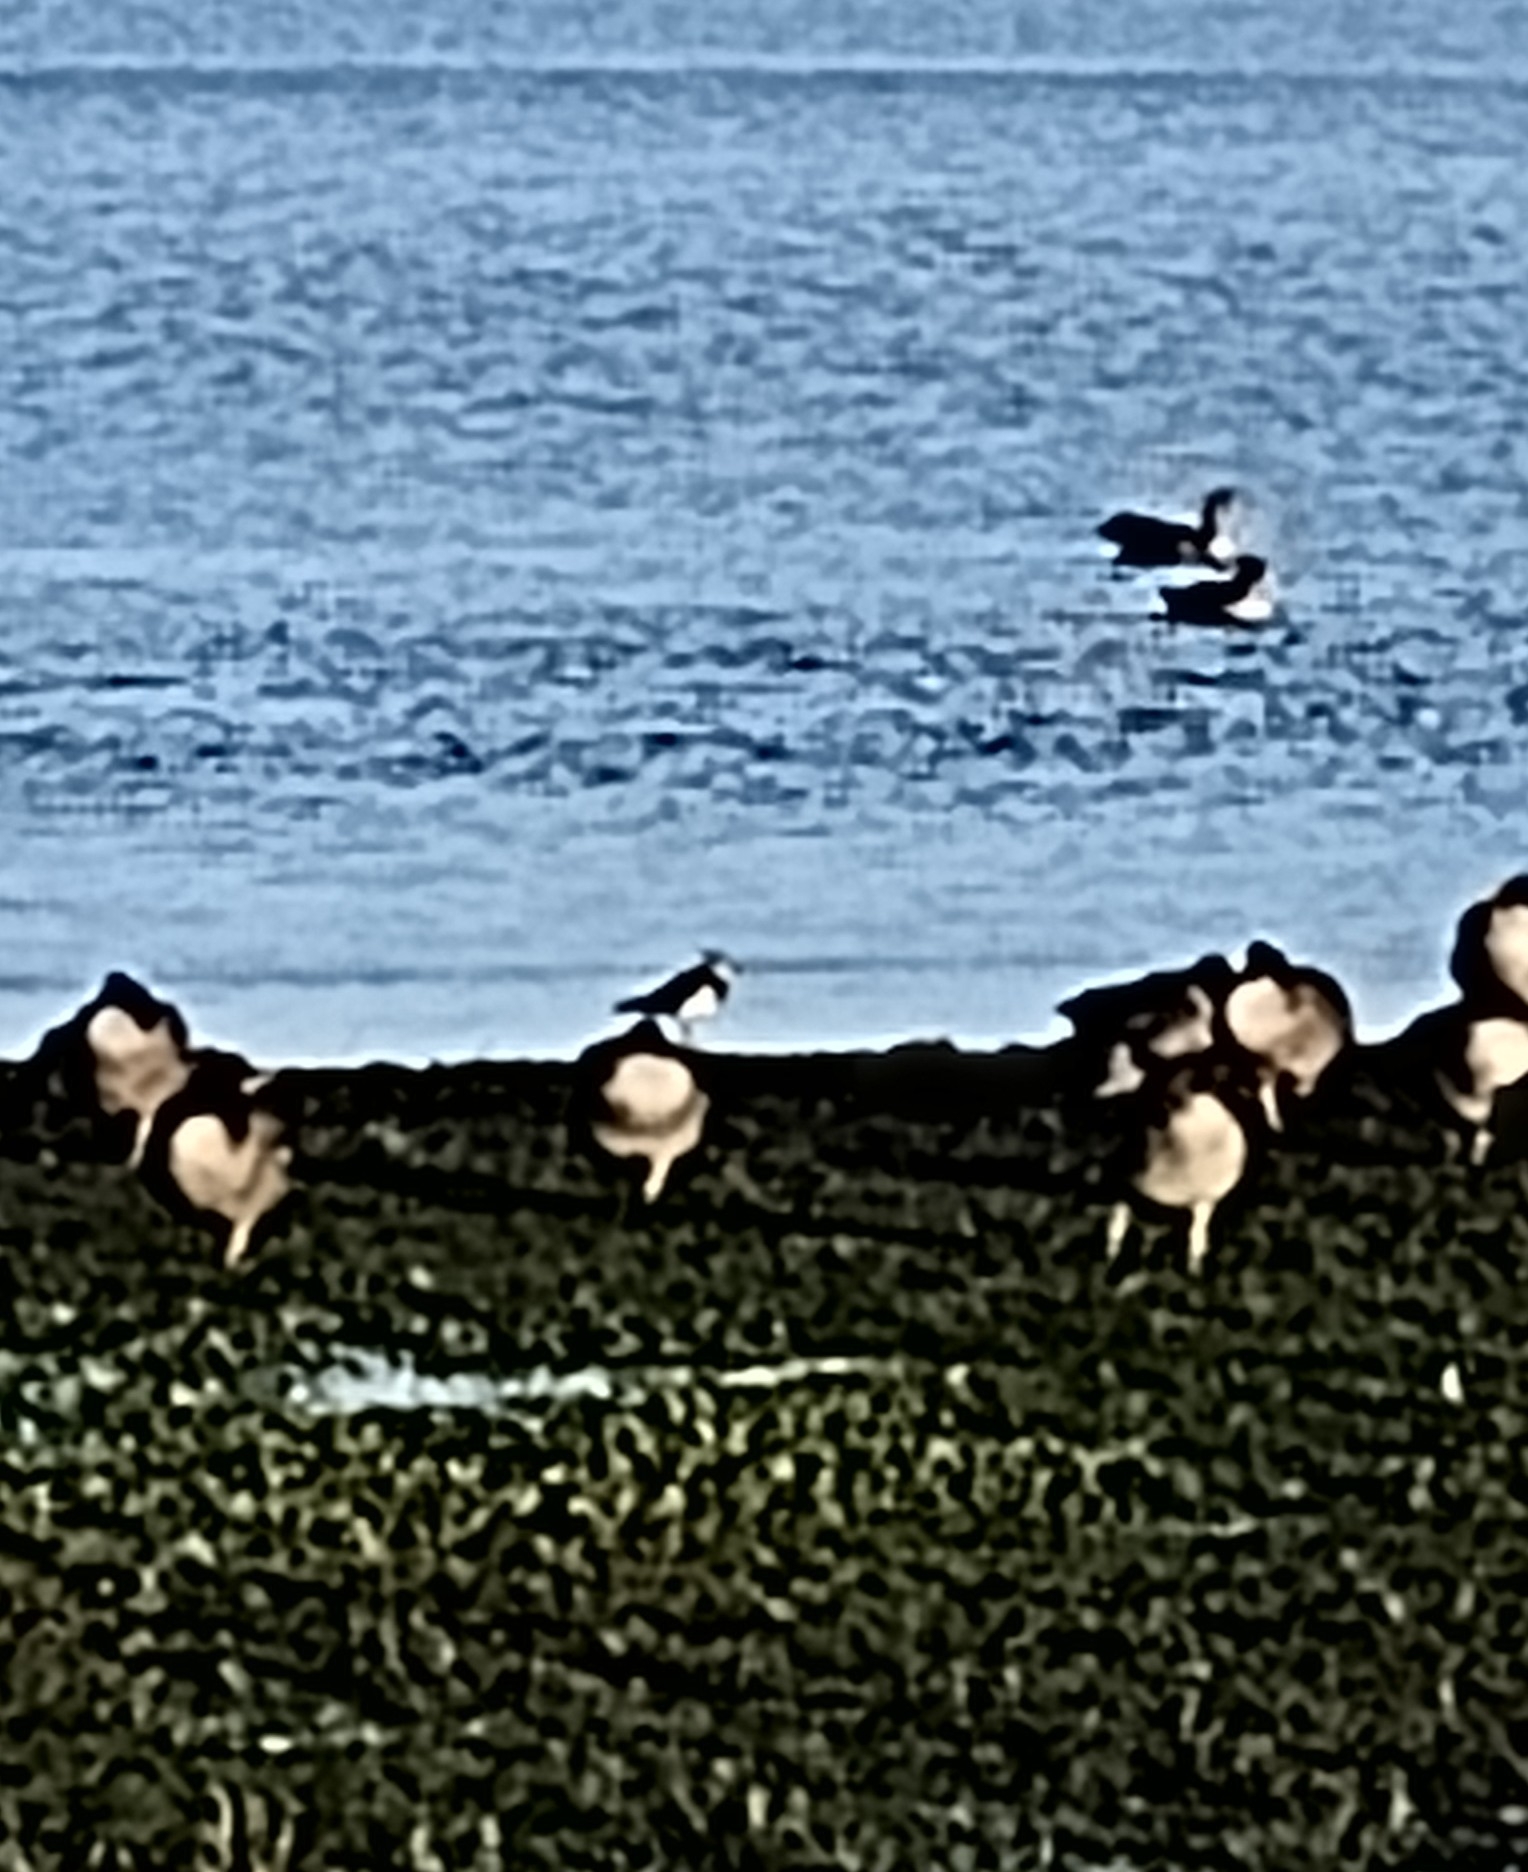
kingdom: Animalia
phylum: Chordata
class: Aves
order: Charadriiformes
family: Charadriidae
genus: Vanellus
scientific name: Vanellus vanellus
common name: Vibe
